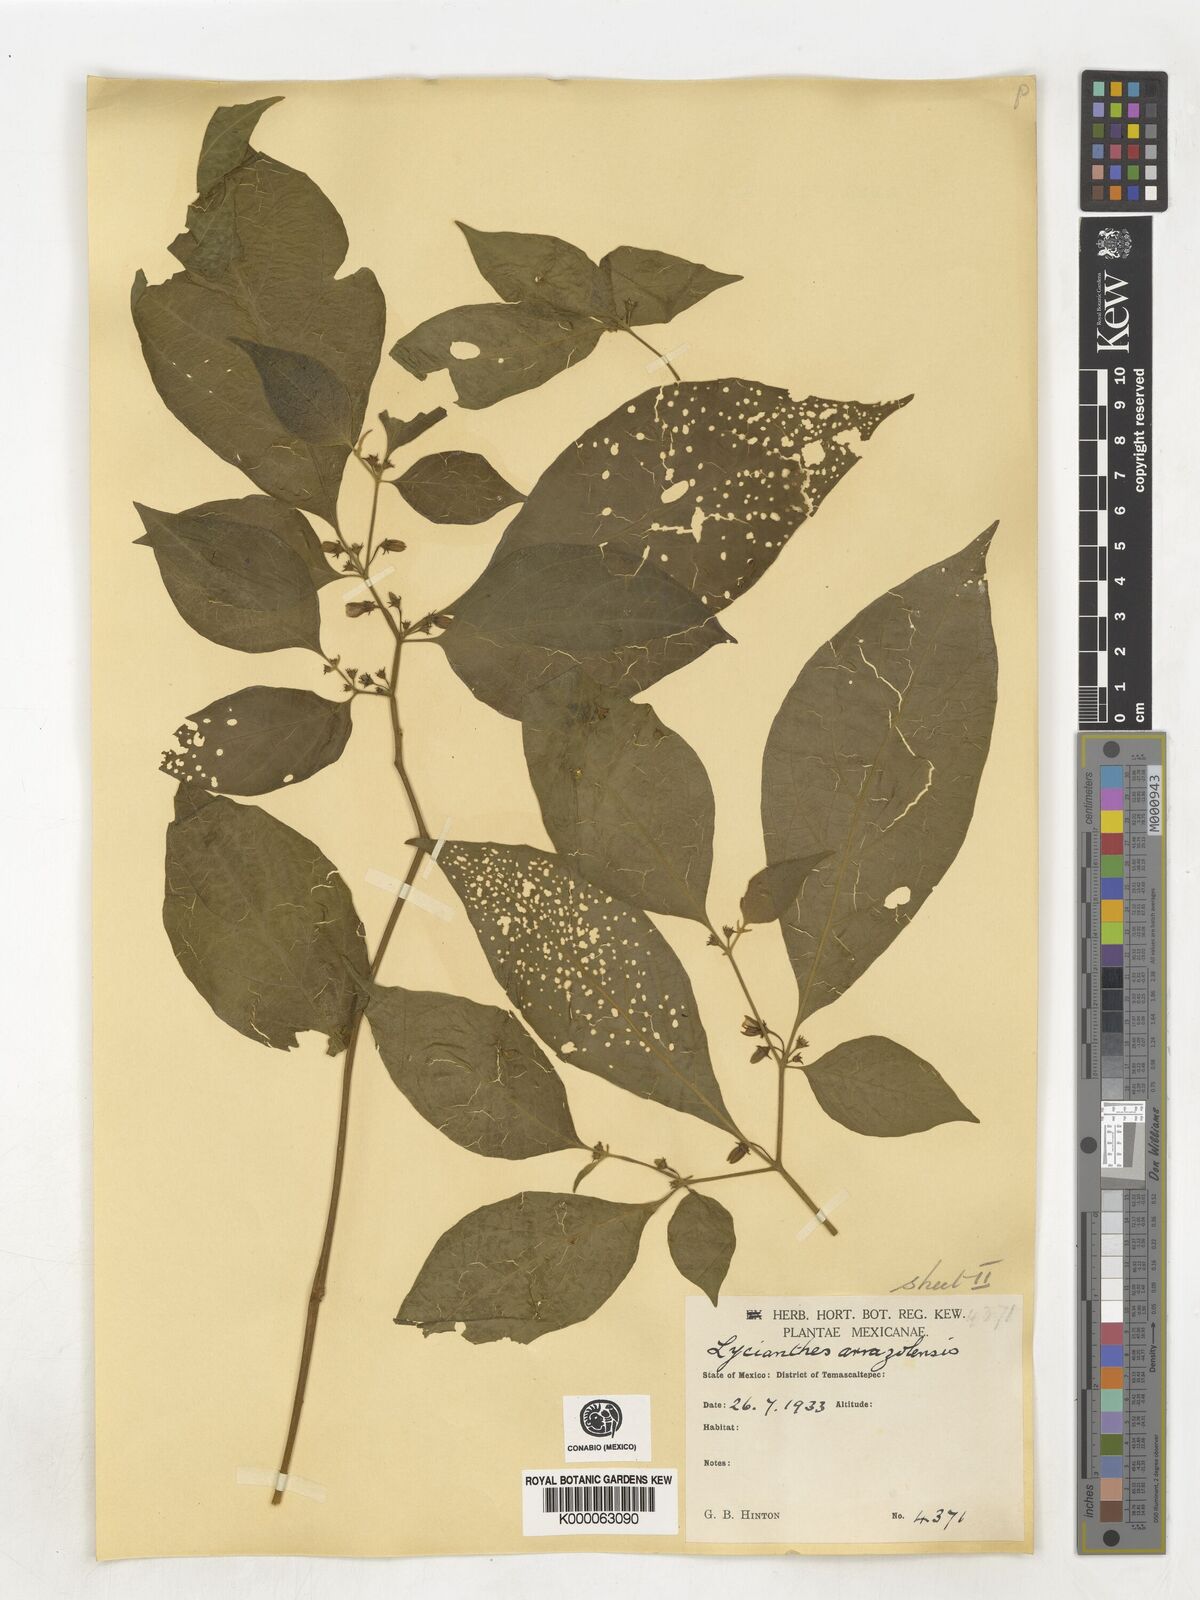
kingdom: Plantae
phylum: Tracheophyta
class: Magnoliopsida
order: Solanales
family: Solanaceae
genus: Lycianthes
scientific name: Lycianthes
